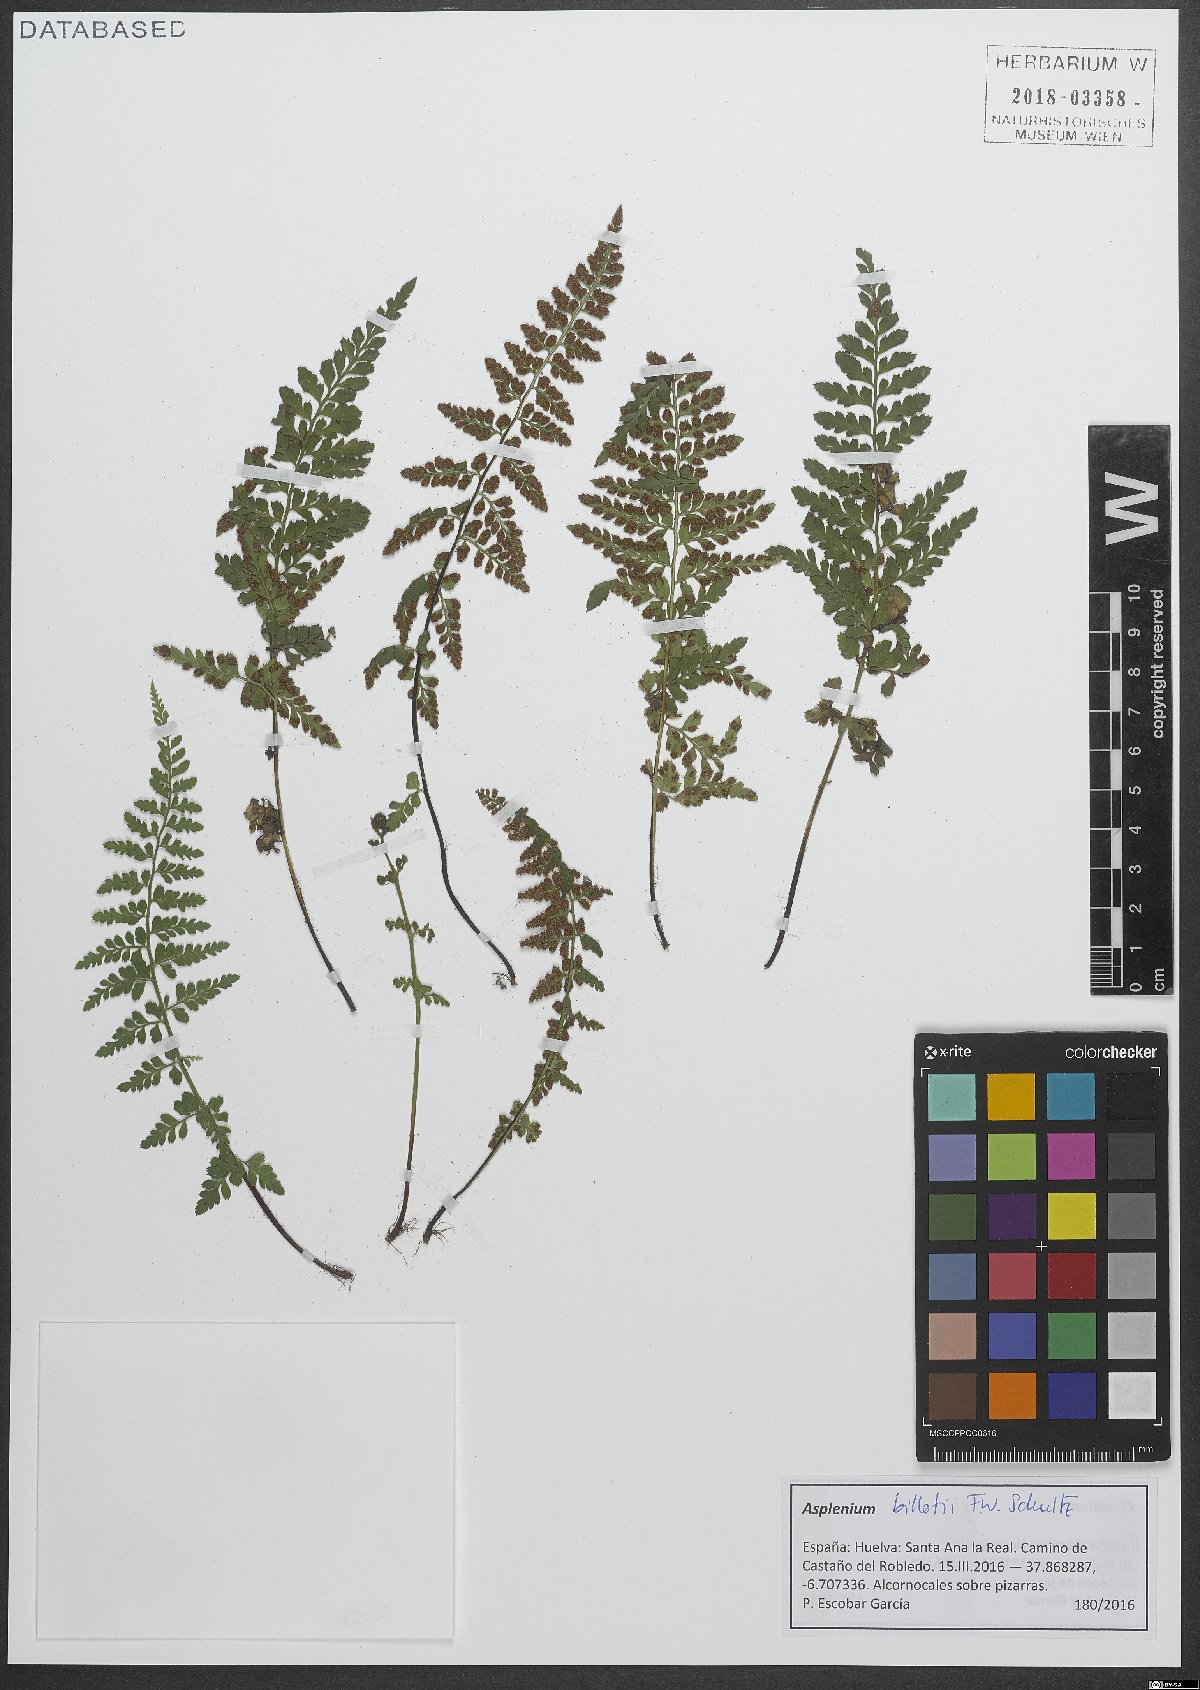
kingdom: Plantae
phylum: Tracheophyta
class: Polypodiopsida
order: Polypodiales
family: Aspleniaceae
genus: Asplenium
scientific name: Asplenium obovatum
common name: Lanceolate spleenwort
